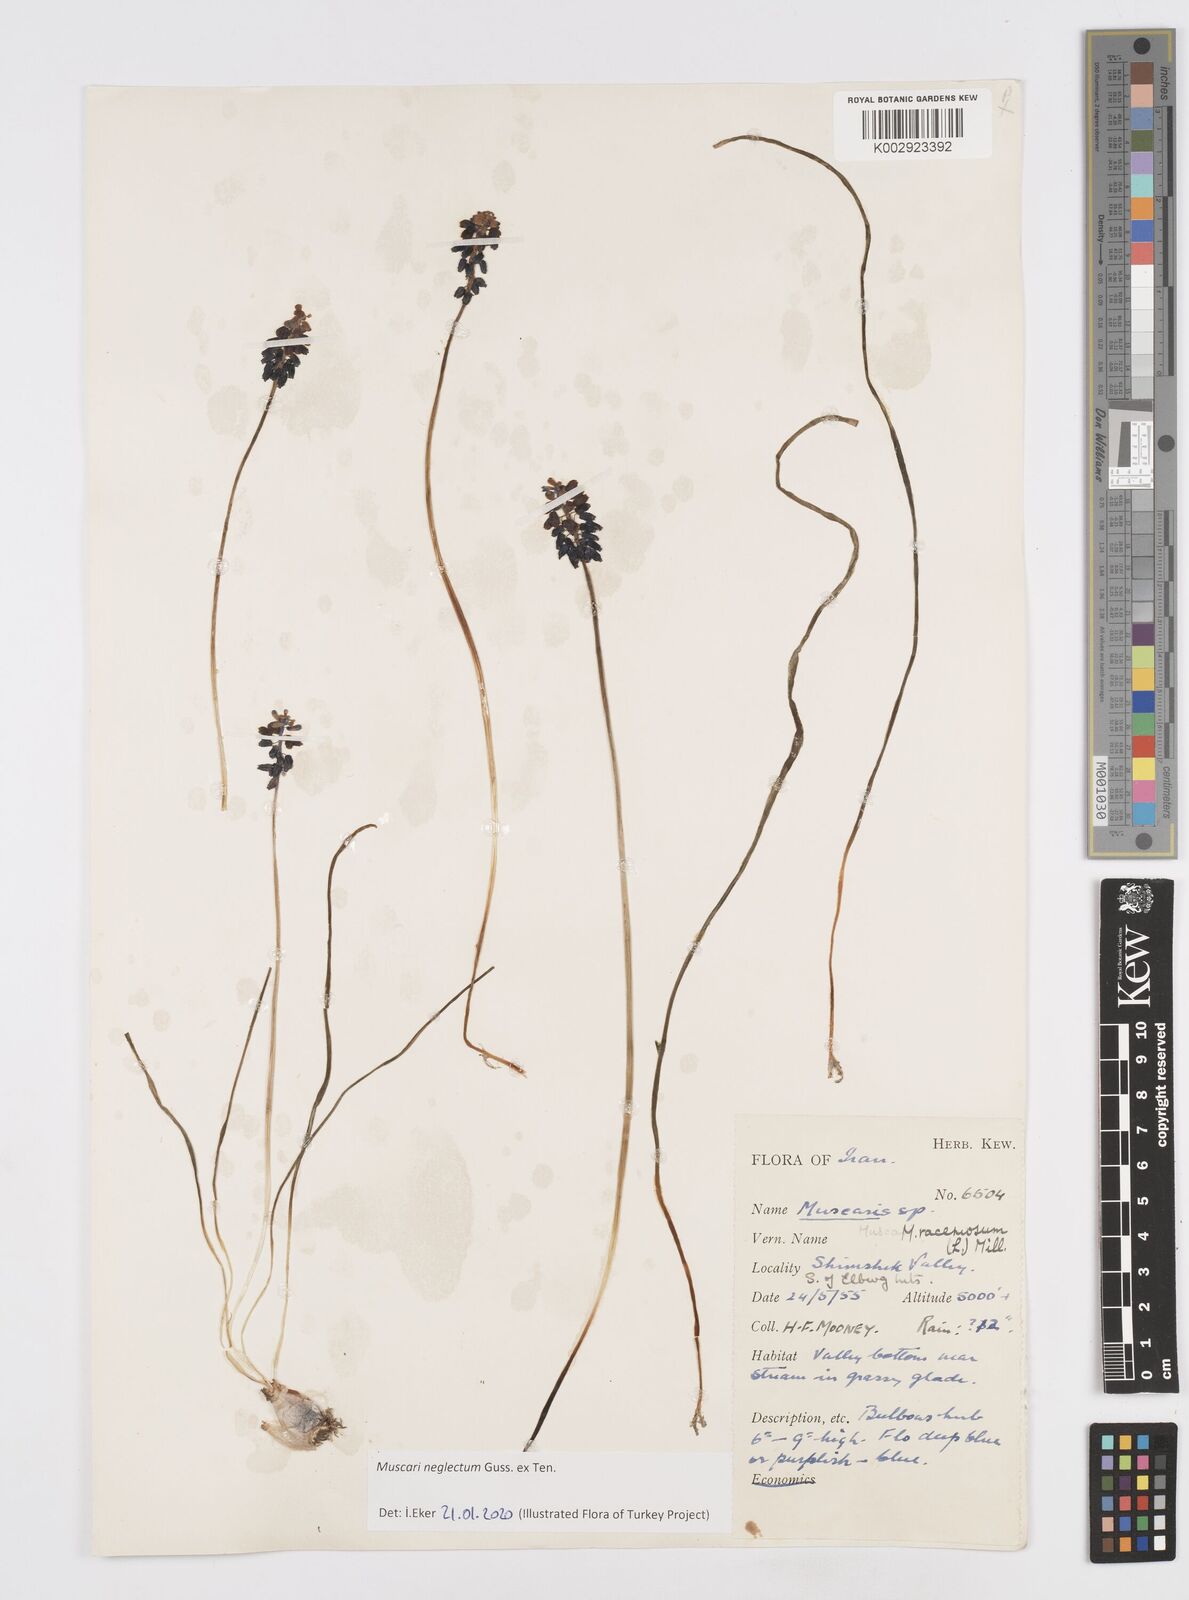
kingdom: Plantae
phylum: Tracheophyta
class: Liliopsida
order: Asparagales
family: Asparagaceae
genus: Muscari
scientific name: Muscari neglectum
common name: Grape-hyacinth
